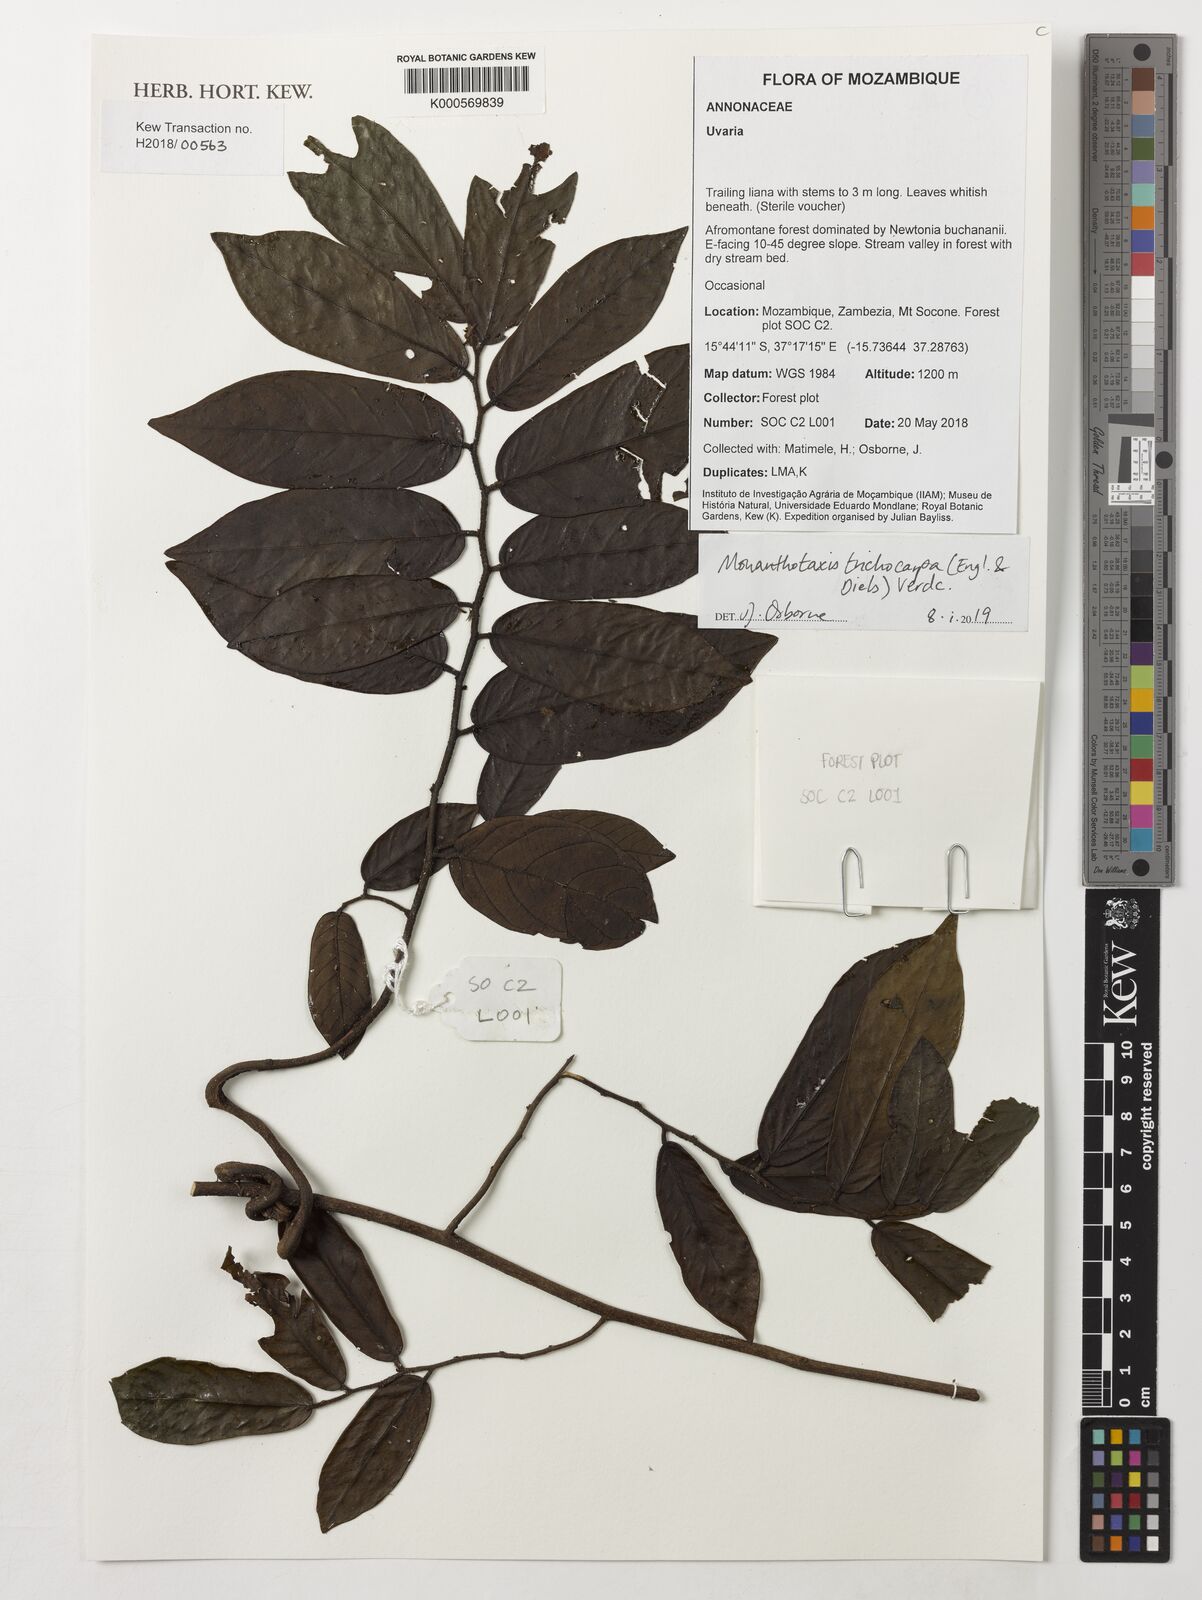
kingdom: Plantae
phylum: Tracheophyta
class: Magnoliopsida
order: Magnoliales
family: Annonaceae
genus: Monanthotaxis
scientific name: Monanthotaxis trichocarpa
